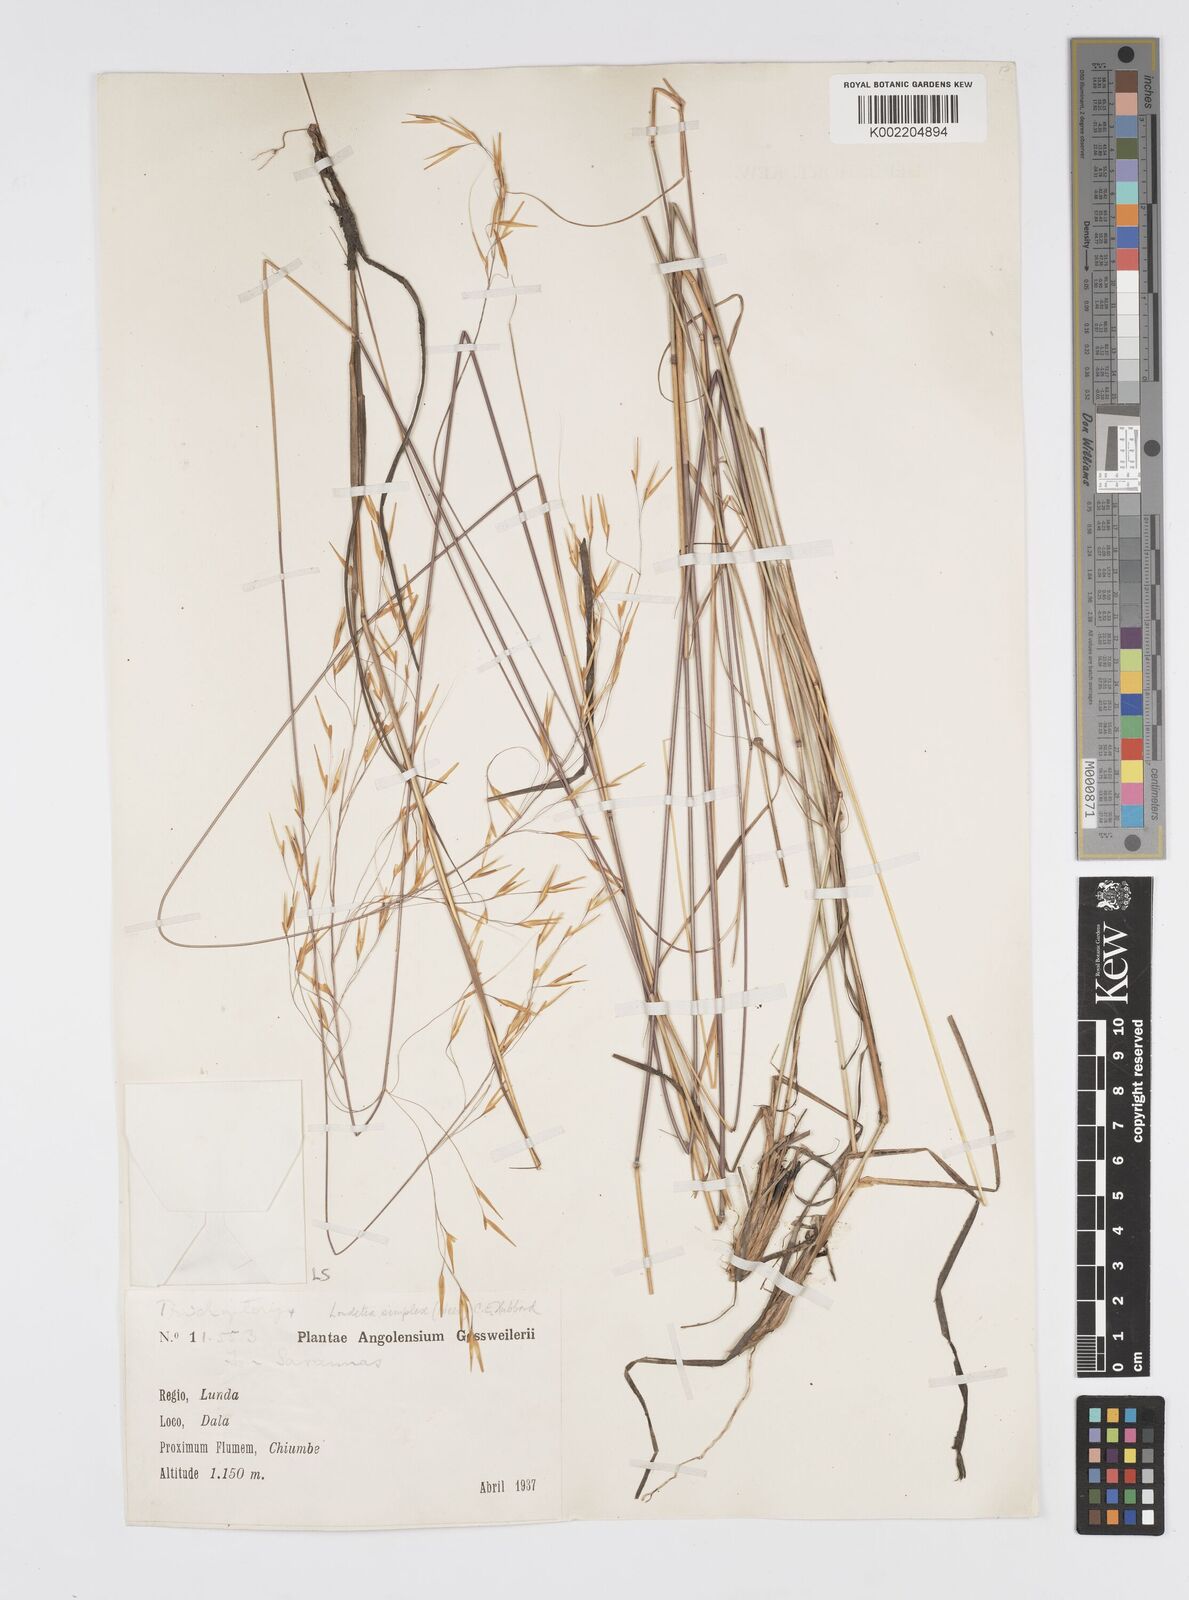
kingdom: Plantae
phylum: Tracheophyta
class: Liliopsida
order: Poales
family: Poaceae
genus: Loudetia
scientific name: Loudetia simplex
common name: Common russet grass
